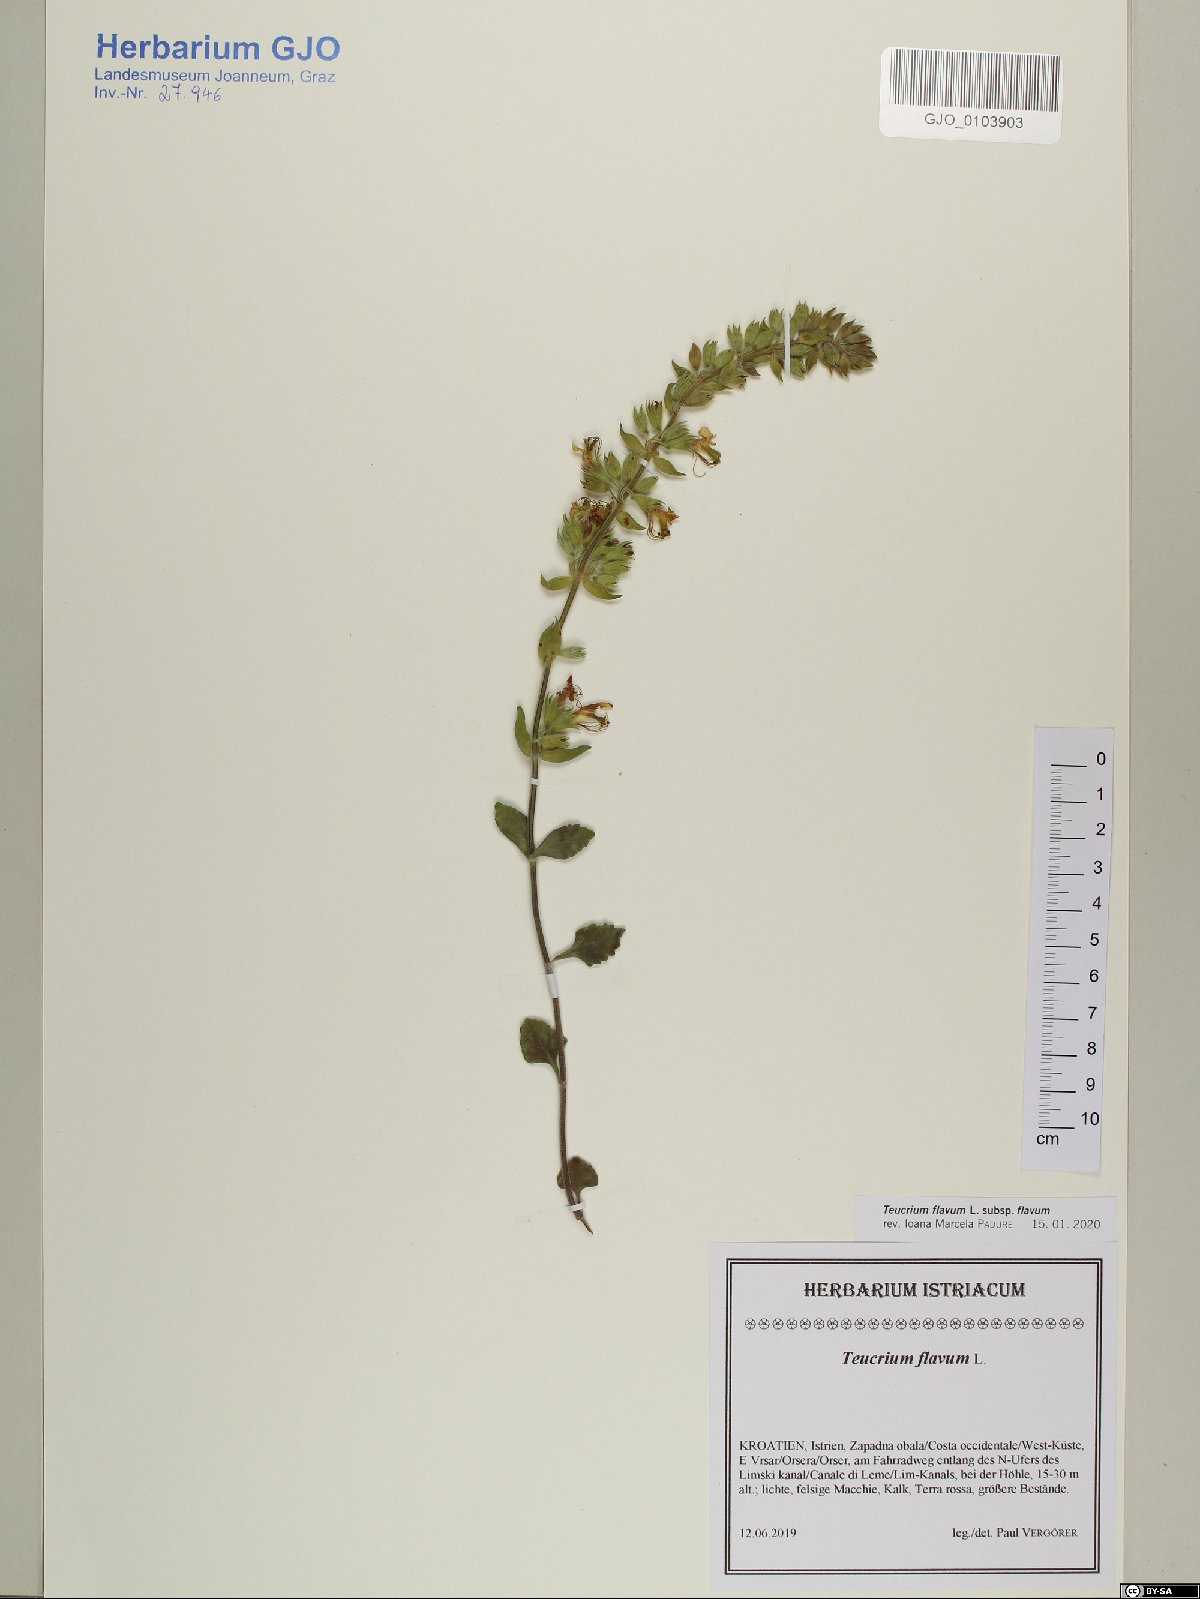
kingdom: Plantae
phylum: Tracheophyta
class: Magnoliopsida
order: Lamiales
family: Lamiaceae
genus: Teucrium
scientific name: Teucrium flavum
